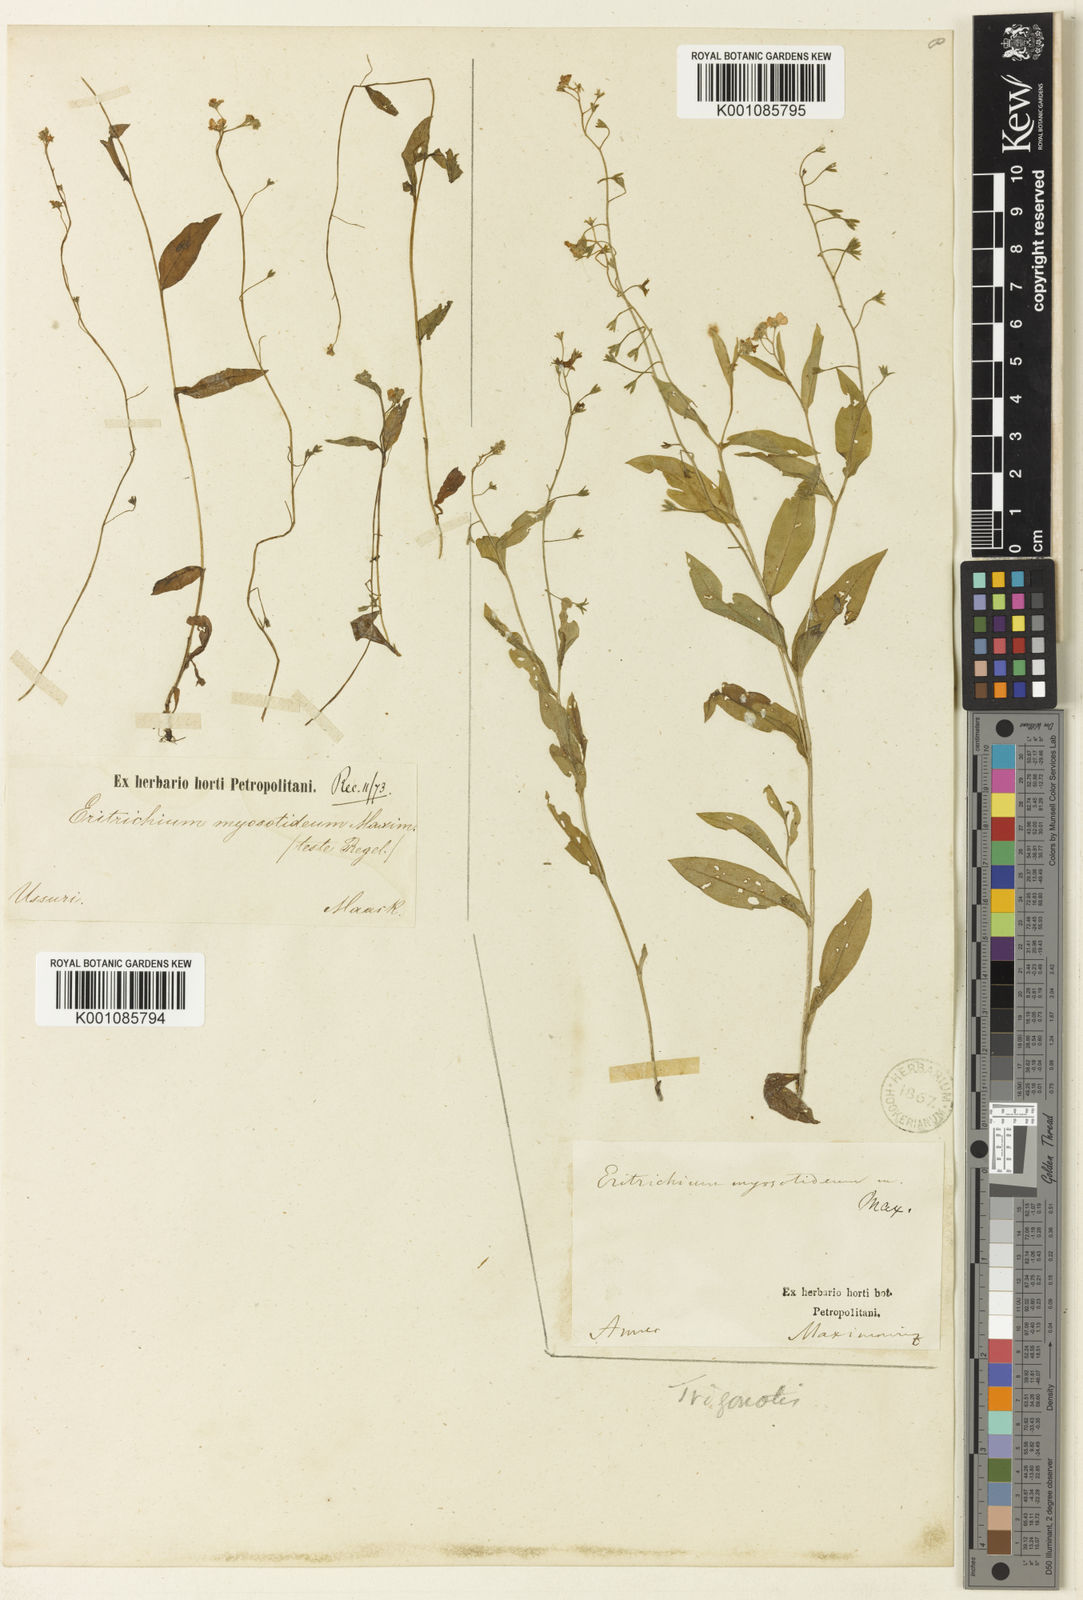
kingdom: Plantae
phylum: Tracheophyta
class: Magnoliopsida
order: Boraginales
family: Boraginaceae
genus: Trigonotis
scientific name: Trigonotis myosotidea
